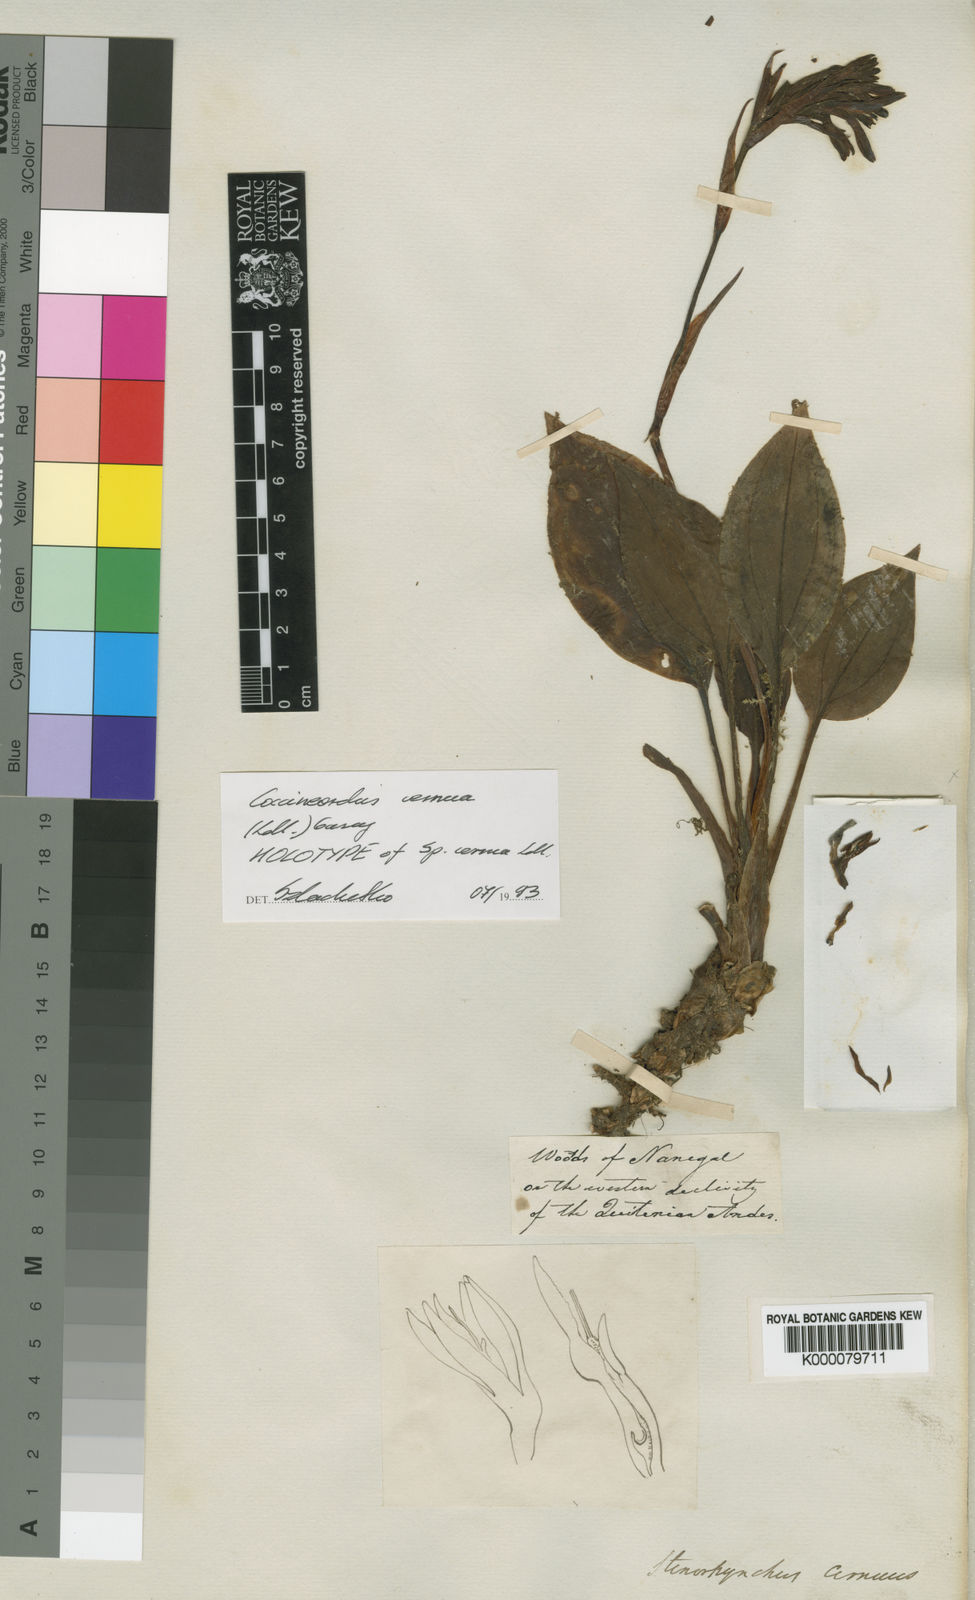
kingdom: Plantae
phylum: Tracheophyta
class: Liliopsida
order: Asparagales
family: Orchidaceae
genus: Coccineorchis
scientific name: Coccineorchis cernua
